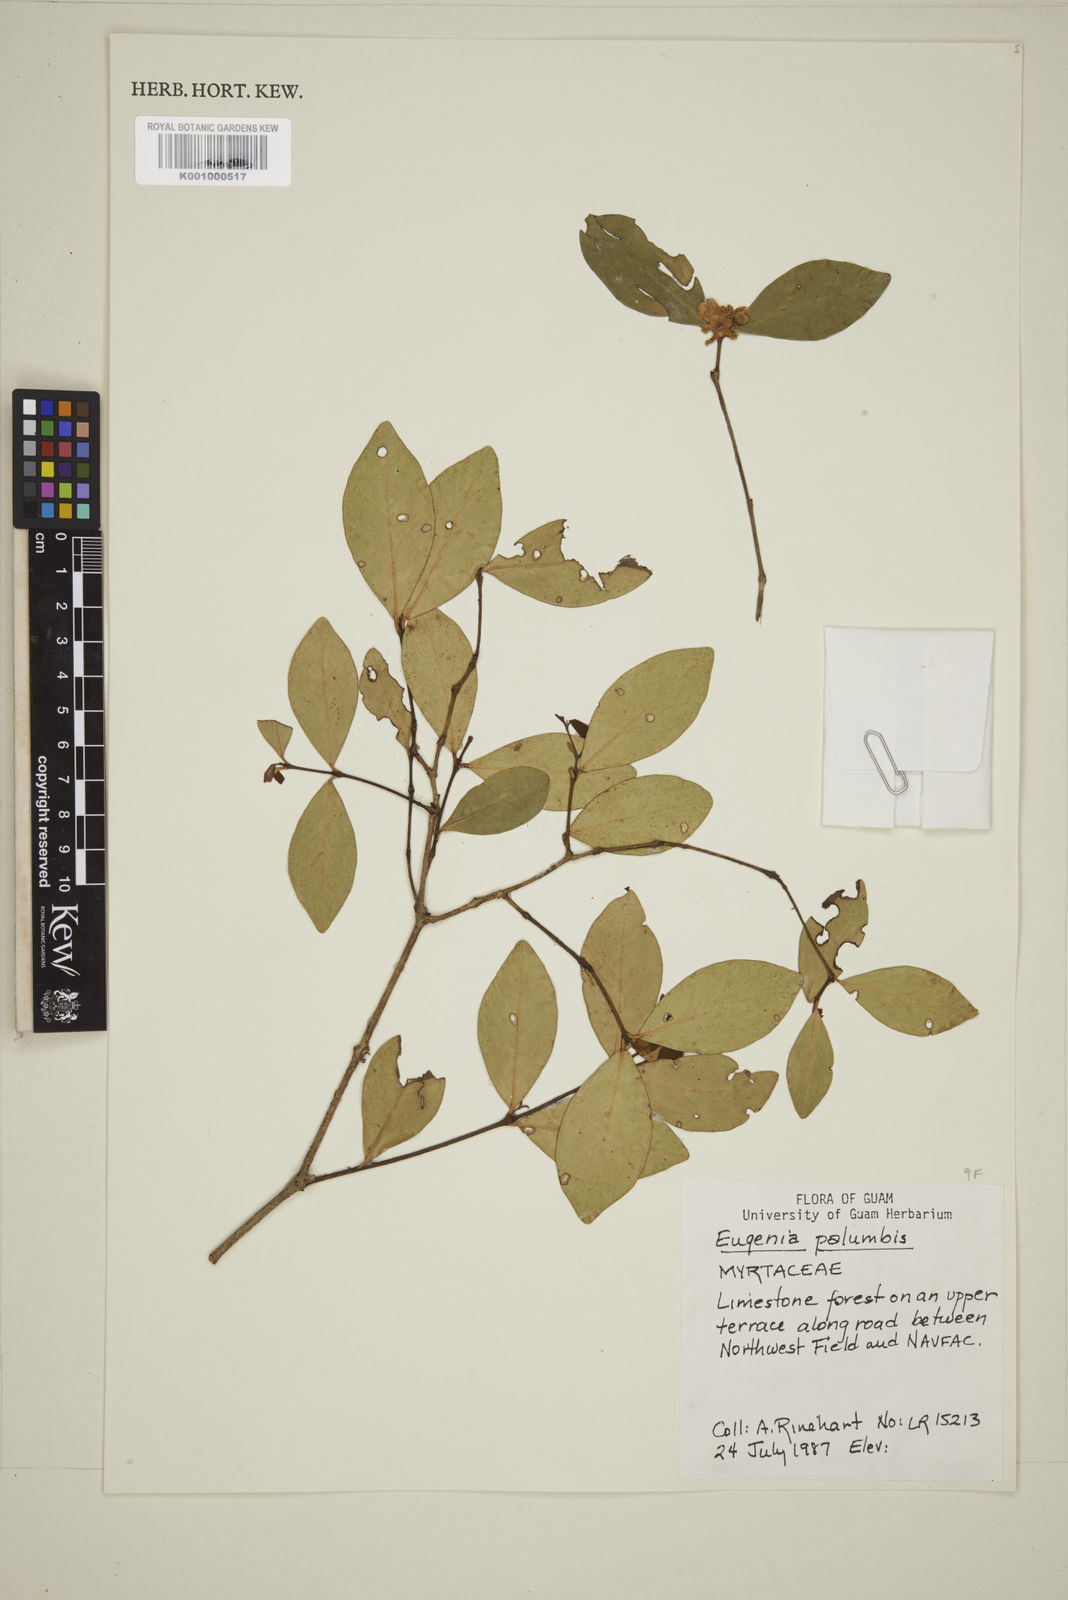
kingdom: Plantae
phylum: Tracheophyta
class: Magnoliopsida
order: Myrtales
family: Myrtaceae
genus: Eugenia
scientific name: Eugenia reinwardtiana
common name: Cedar bay-cherry
